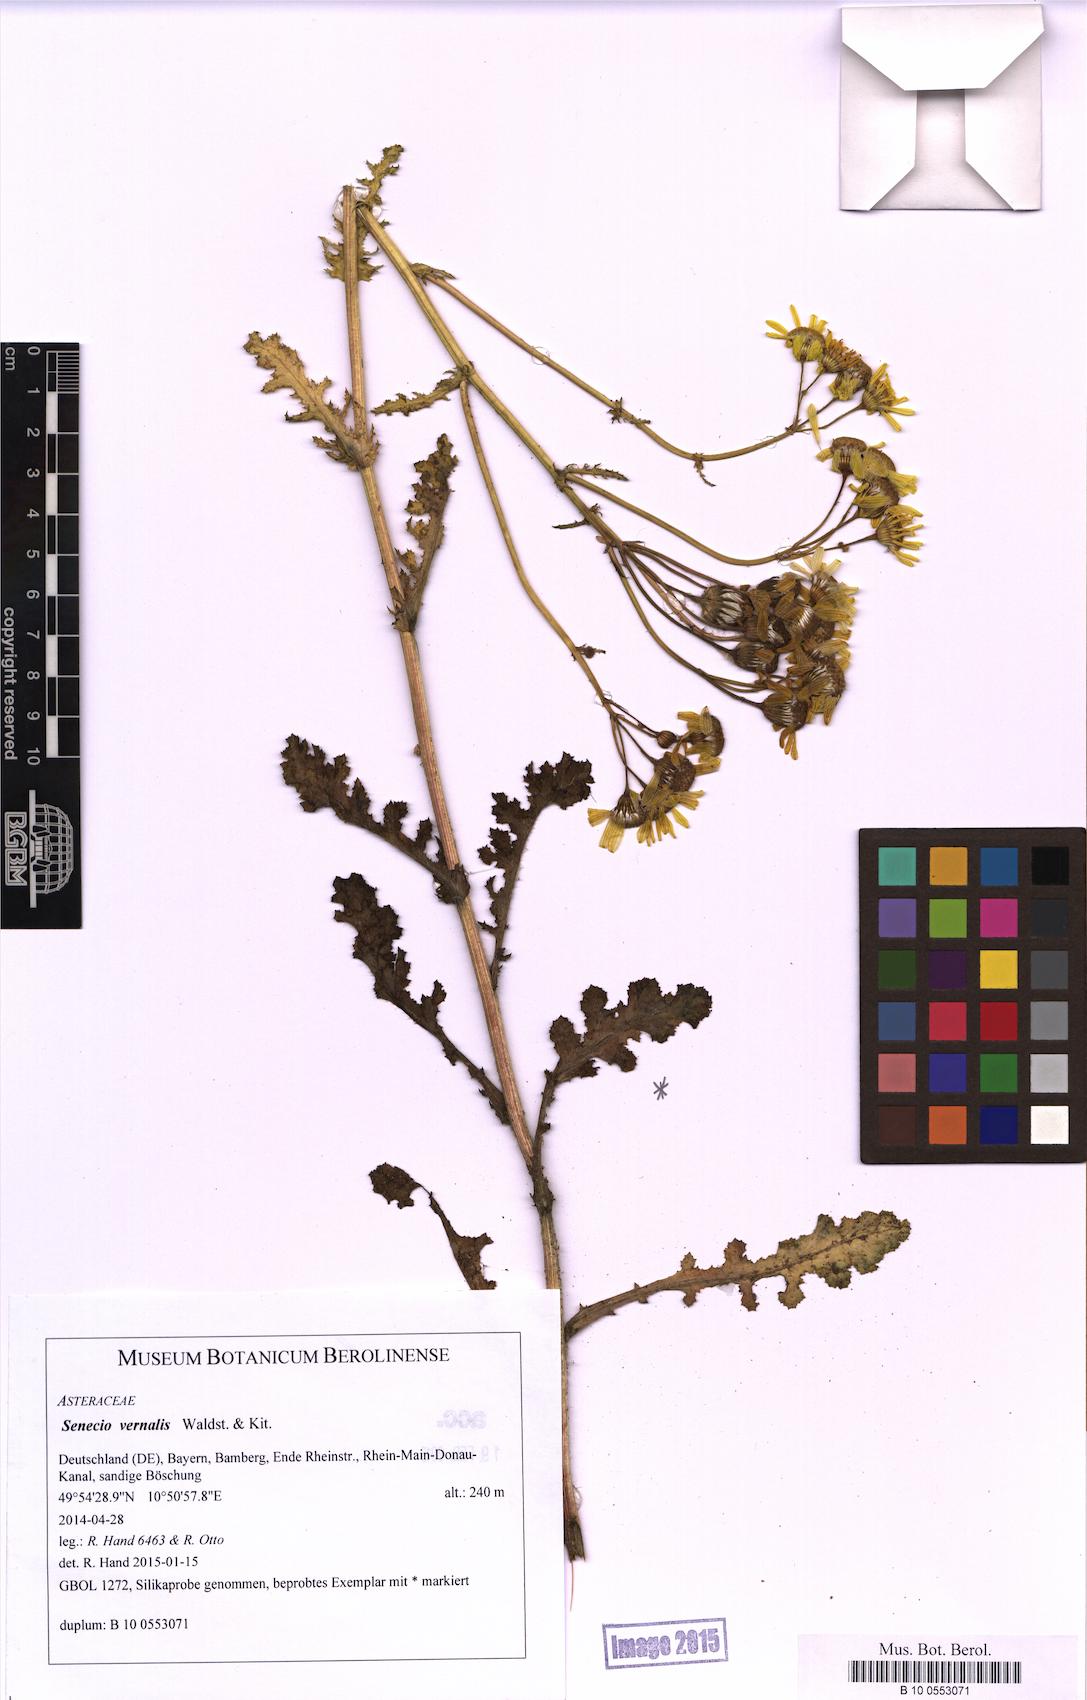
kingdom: Plantae
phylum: Tracheophyta
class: Magnoliopsida
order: Asterales
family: Asteraceae
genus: Senecio
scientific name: Senecio vernalis
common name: Eastern groundsel
